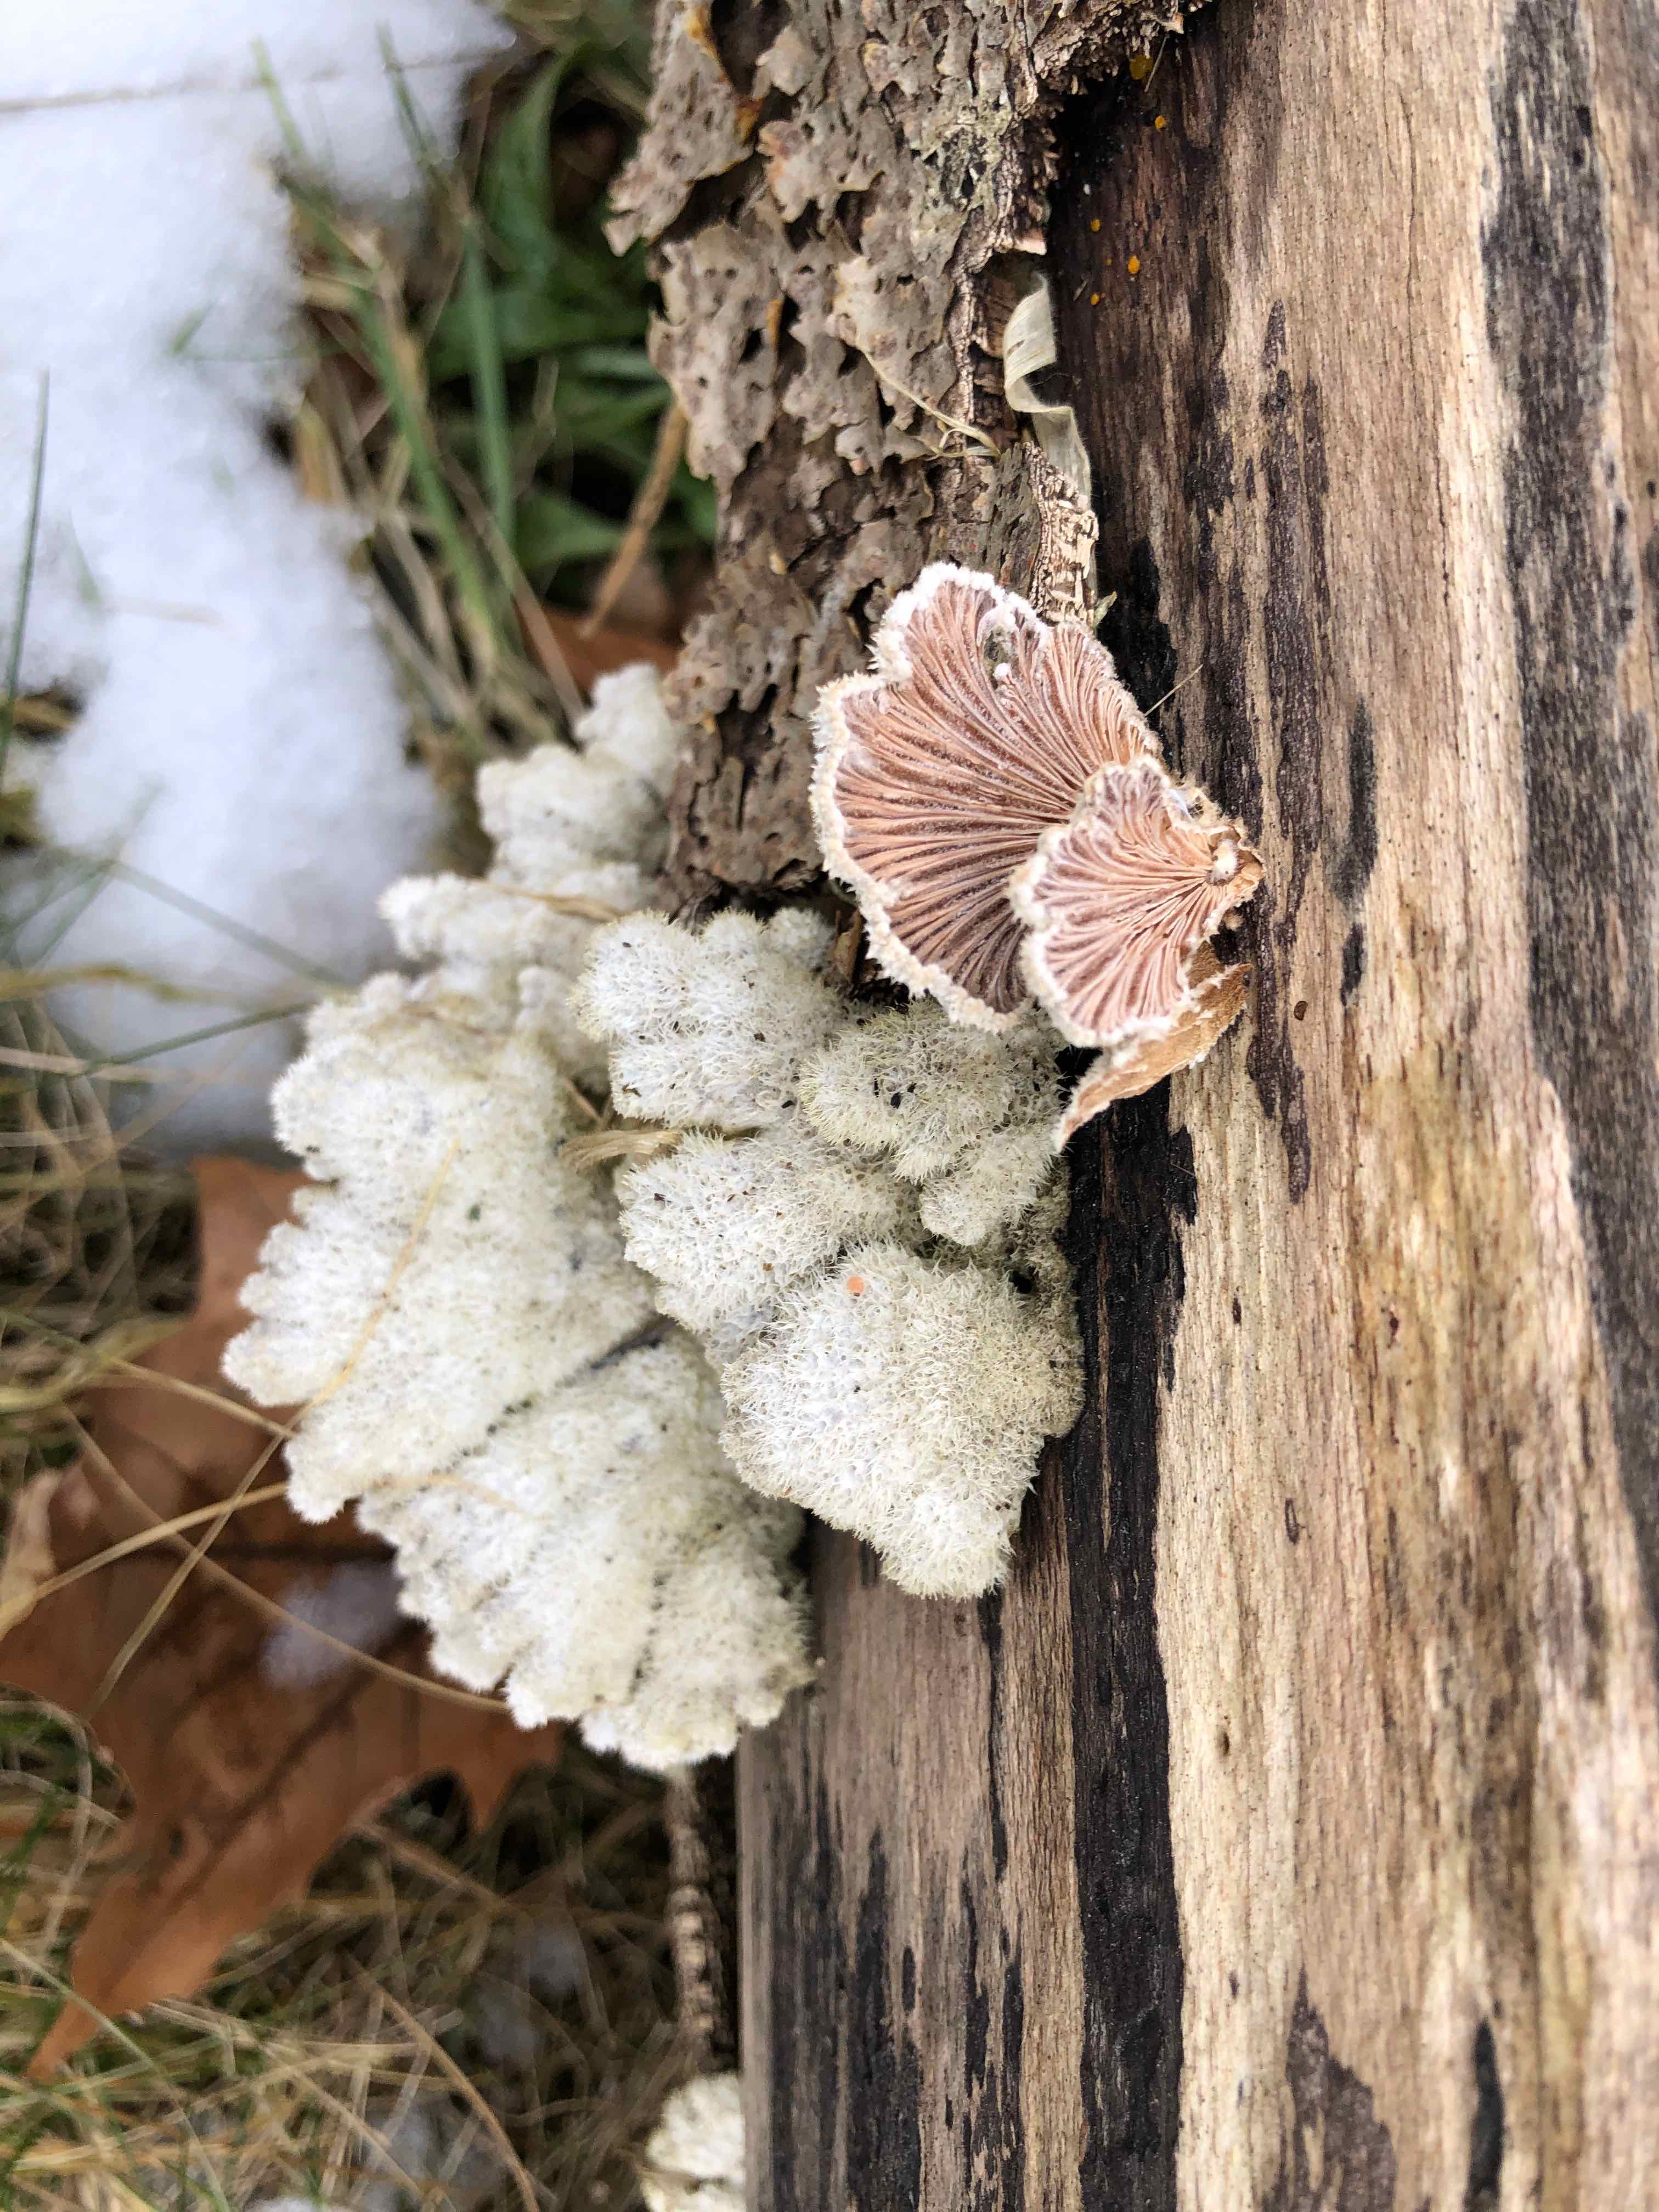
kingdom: Fungi
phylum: Basidiomycota
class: Agaricomycetes
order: Agaricales
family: Schizophyllaceae
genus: Schizophyllum
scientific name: Schizophyllum commune
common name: kløvblad
